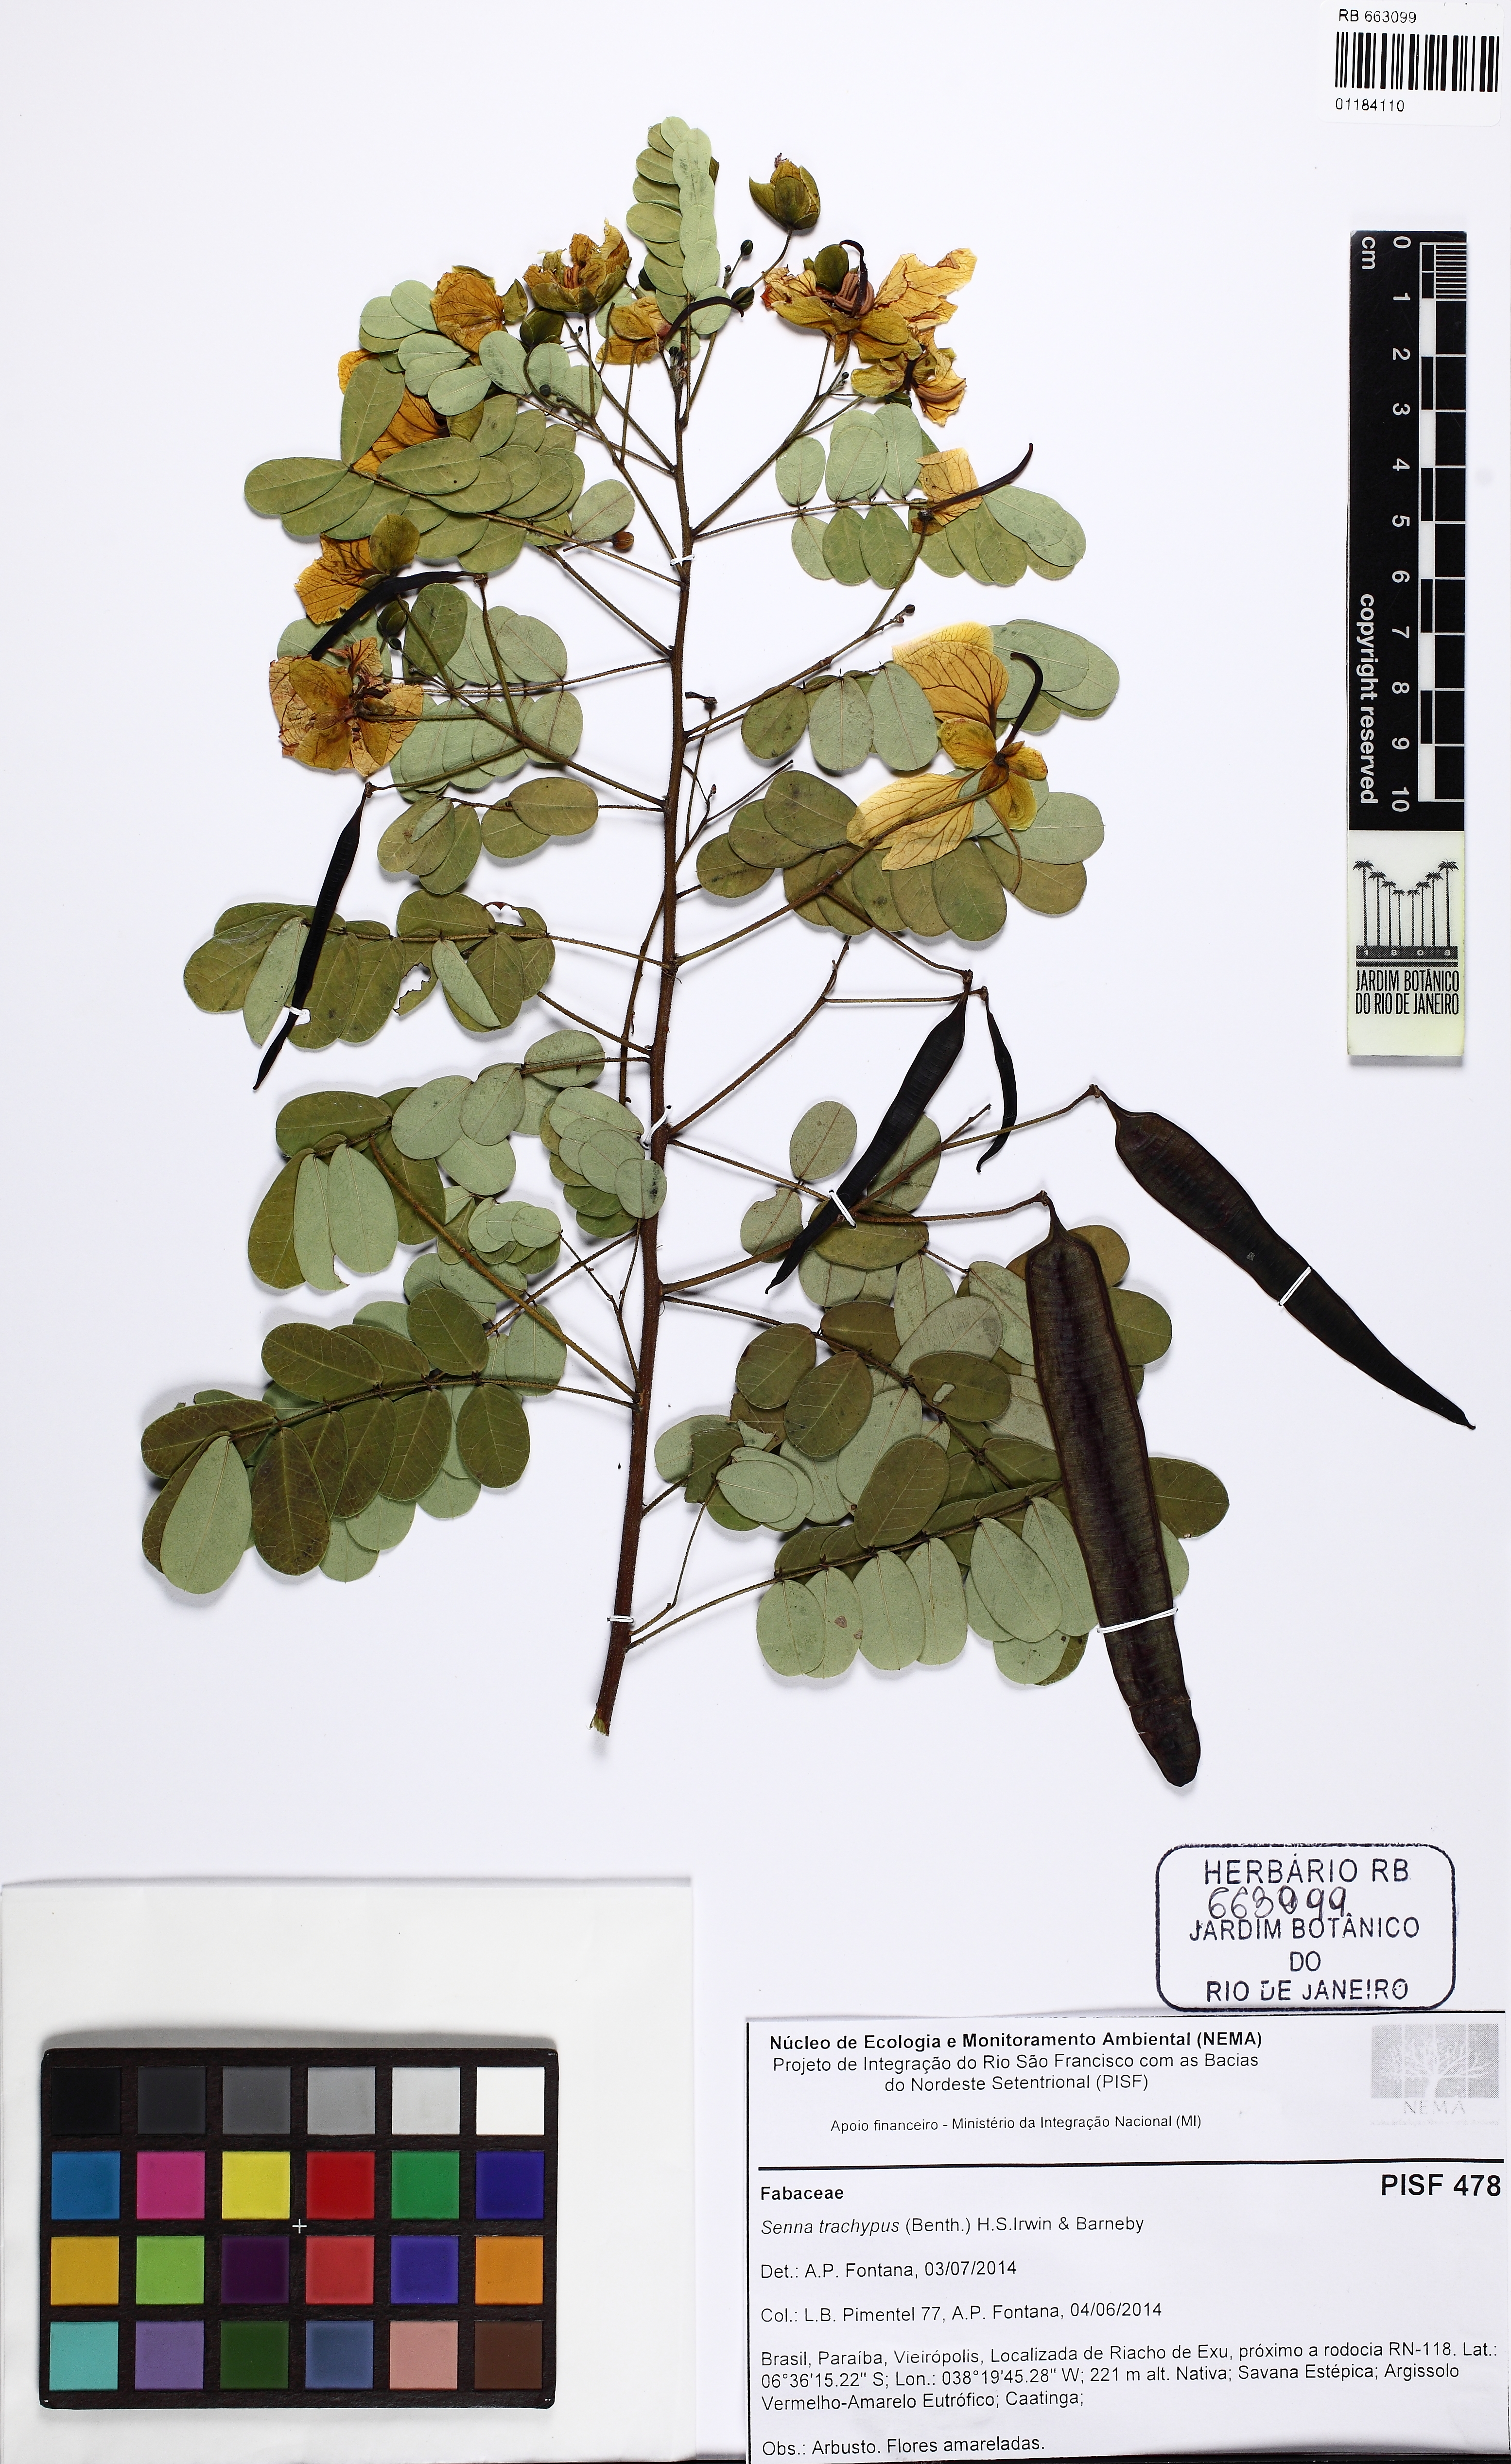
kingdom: Plantae
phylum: Tracheophyta
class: Magnoliopsida
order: Fabales
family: Fabaceae
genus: Senna
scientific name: Senna trachypus
